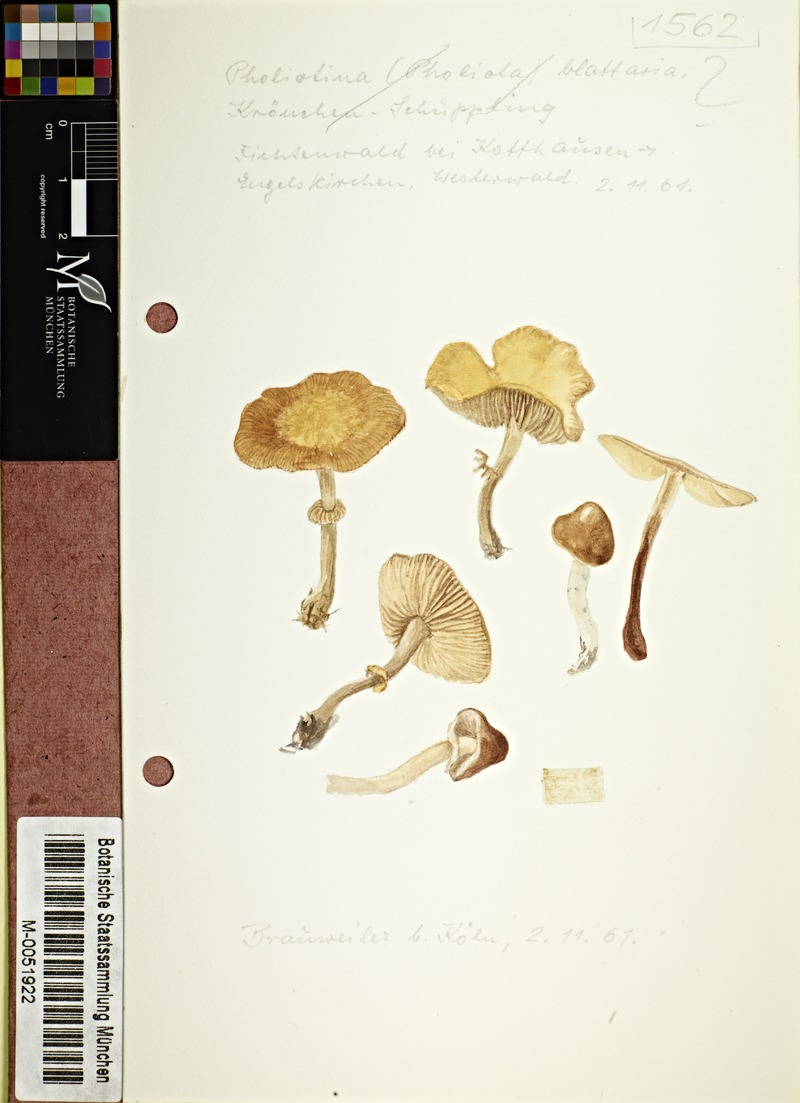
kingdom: Fungi
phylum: Basidiomycota
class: Agaricomycetes
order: Agaricales
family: Bolbitiaceae
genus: Pholiotina
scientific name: Pholiotina blattaria
